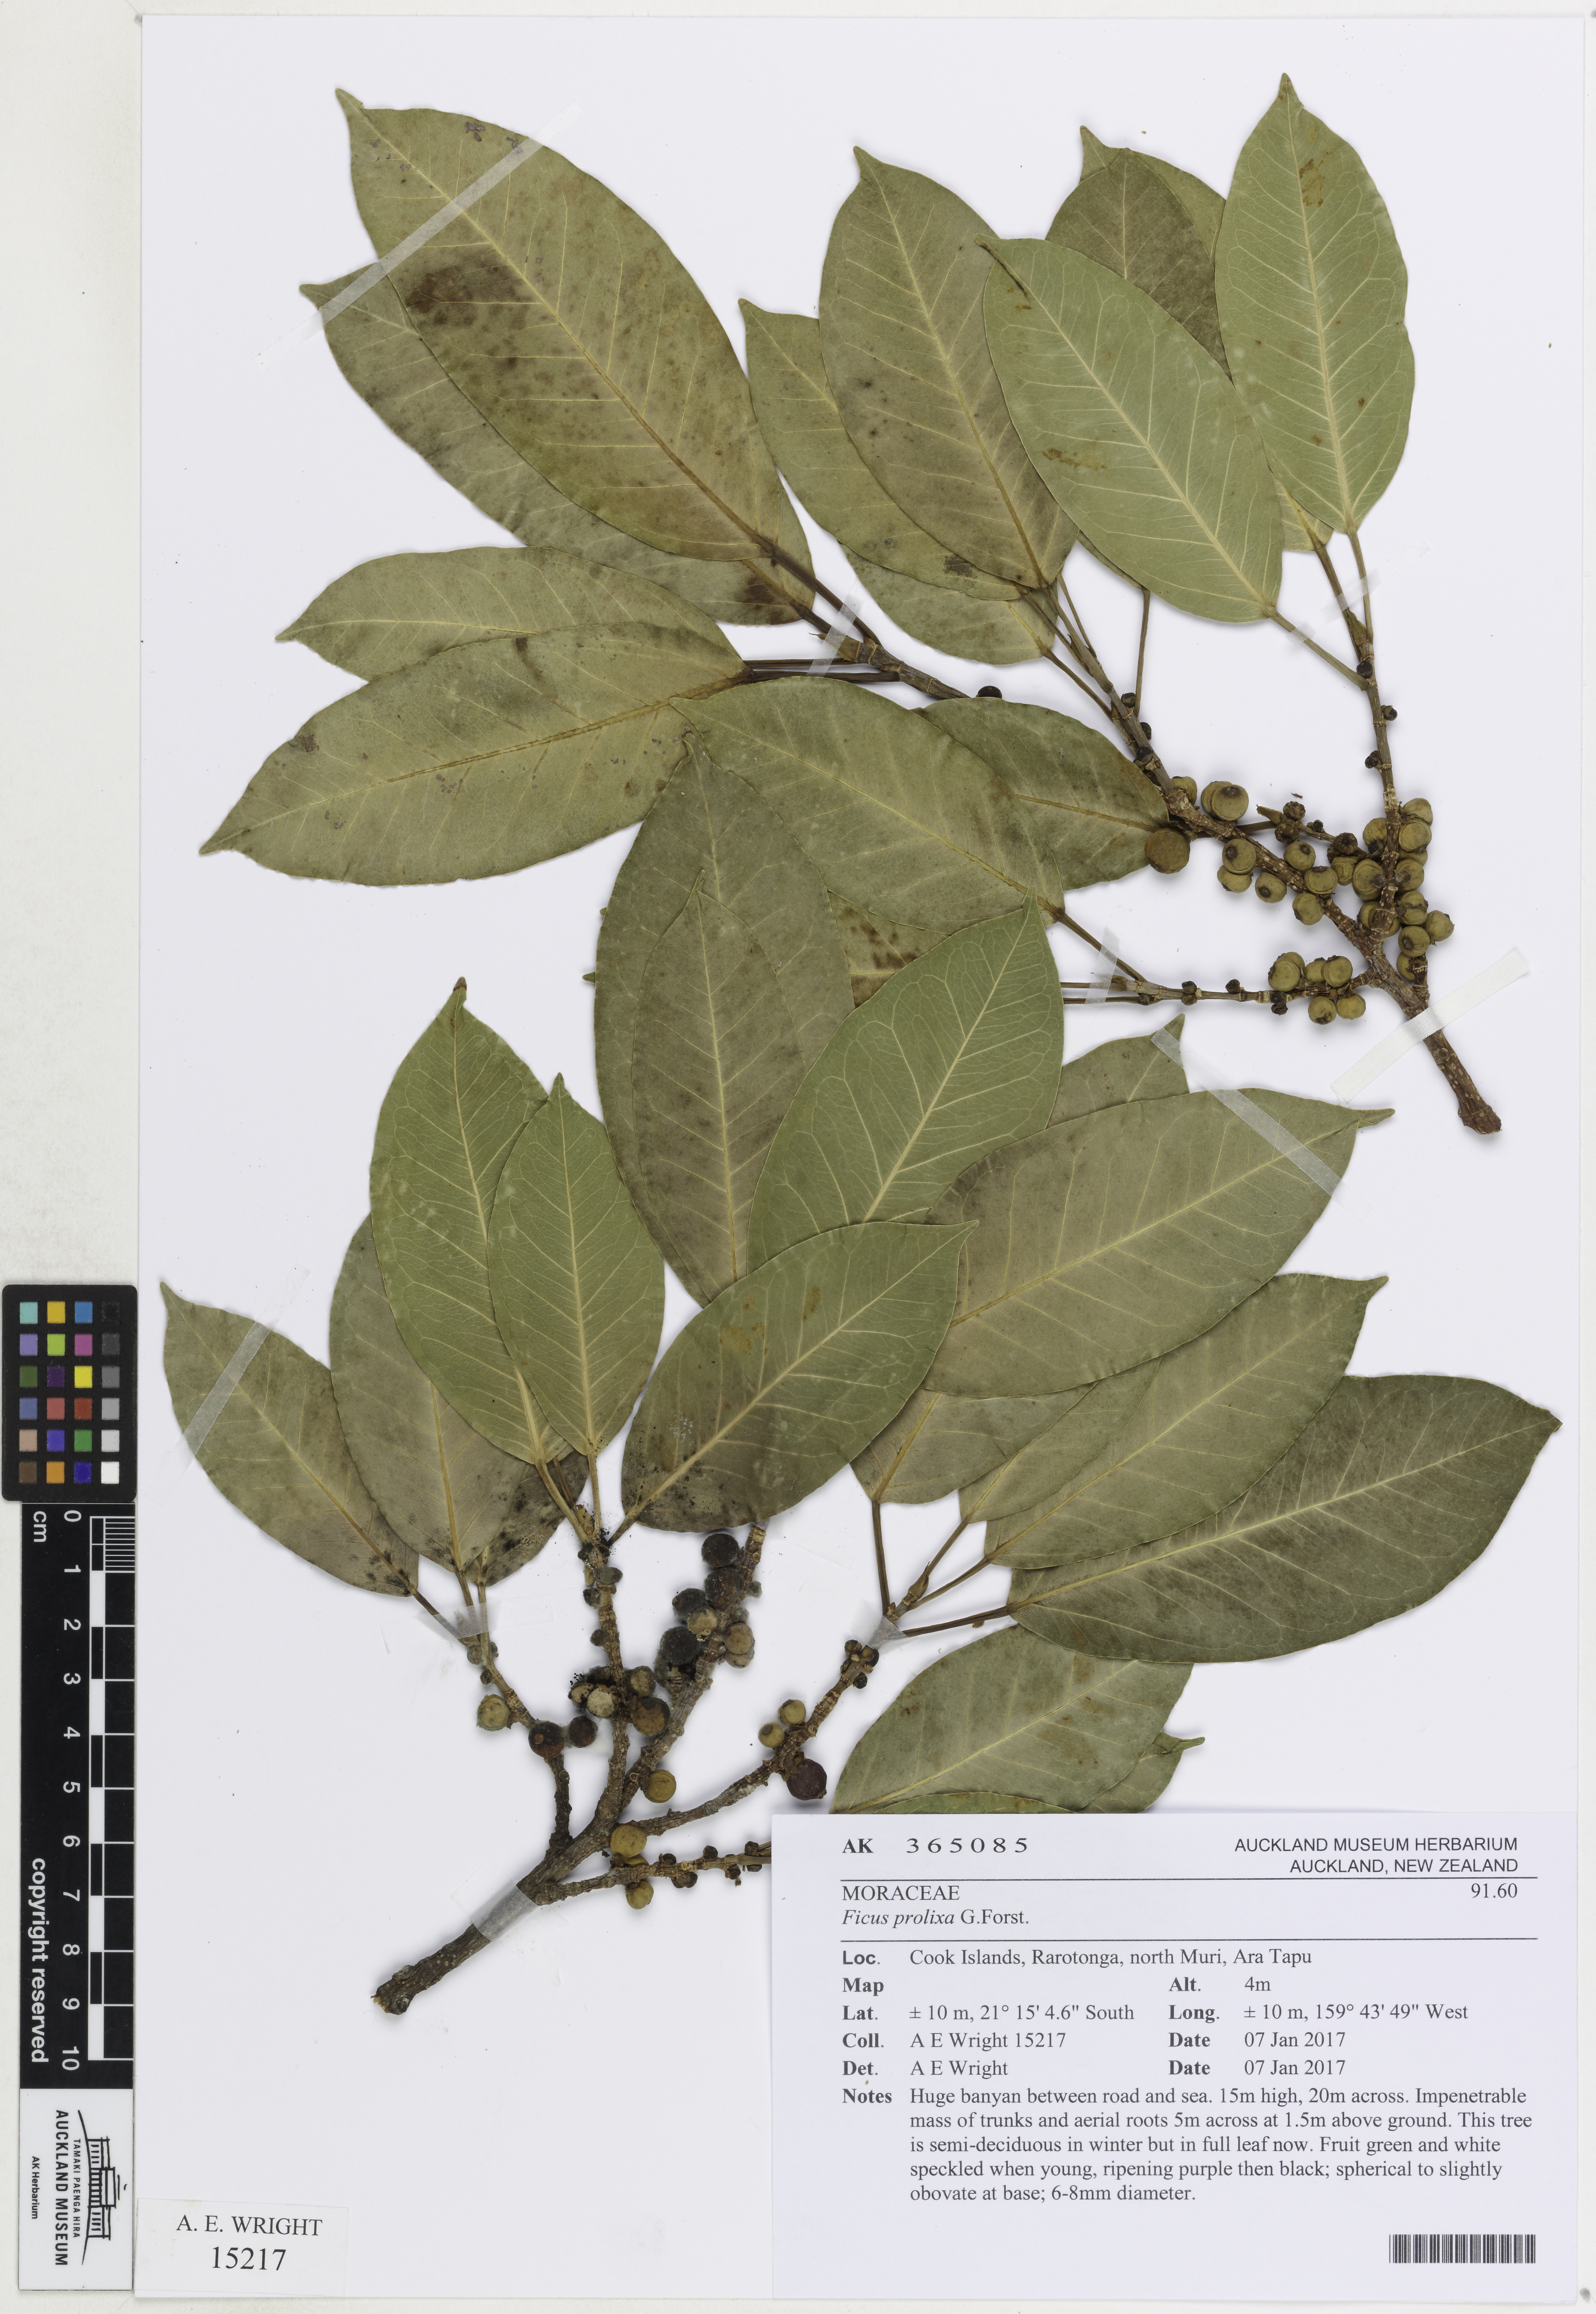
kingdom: Plantae
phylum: Tracheophyta
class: Magnoliopsida
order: Rosales
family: Moraceae
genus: Ficus
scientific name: Ficus prolixa
